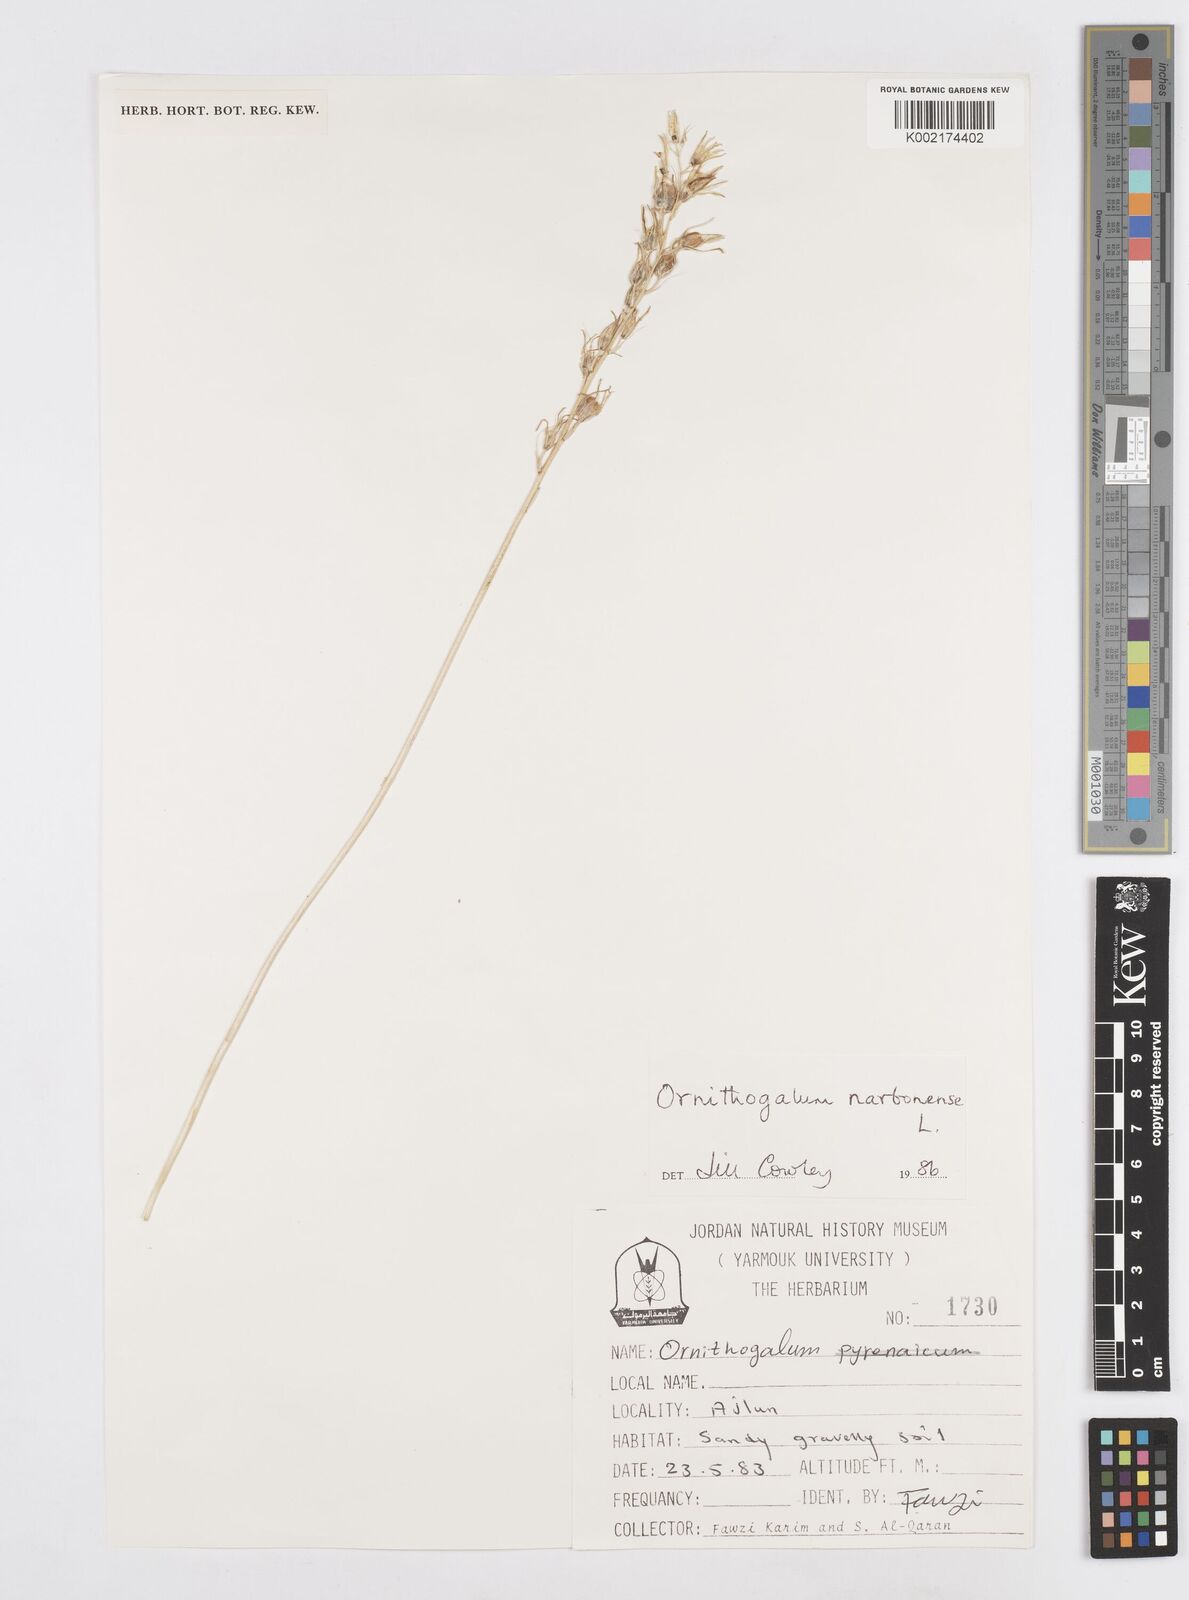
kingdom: Plantae
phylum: Tracheophyta
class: Liliopsida
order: Asparagales
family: Asparagaceae
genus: Ornithogalum
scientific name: Ornithogalum narbonense
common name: Bath-asparagus
